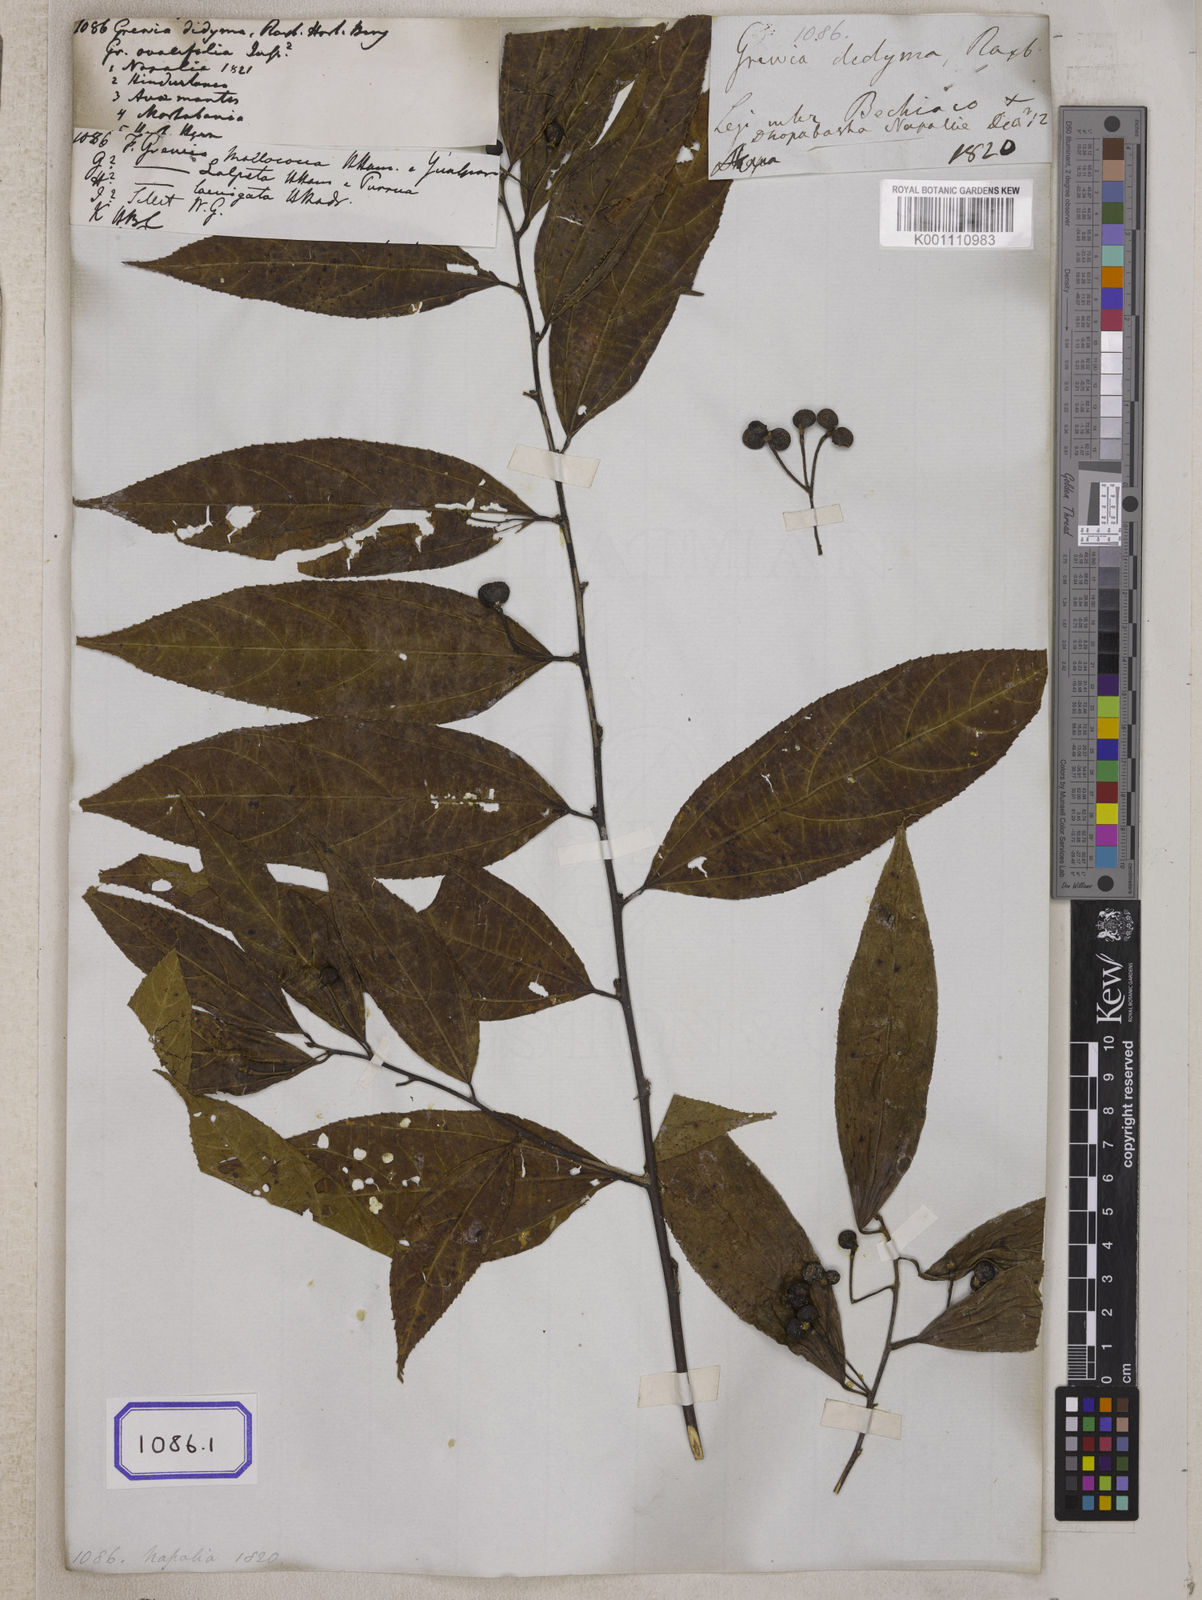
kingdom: Plantae
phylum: Tracheophyta
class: Magnoliopsida
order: Malvales
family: Malvaceae
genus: Grewia
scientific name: Grewia
